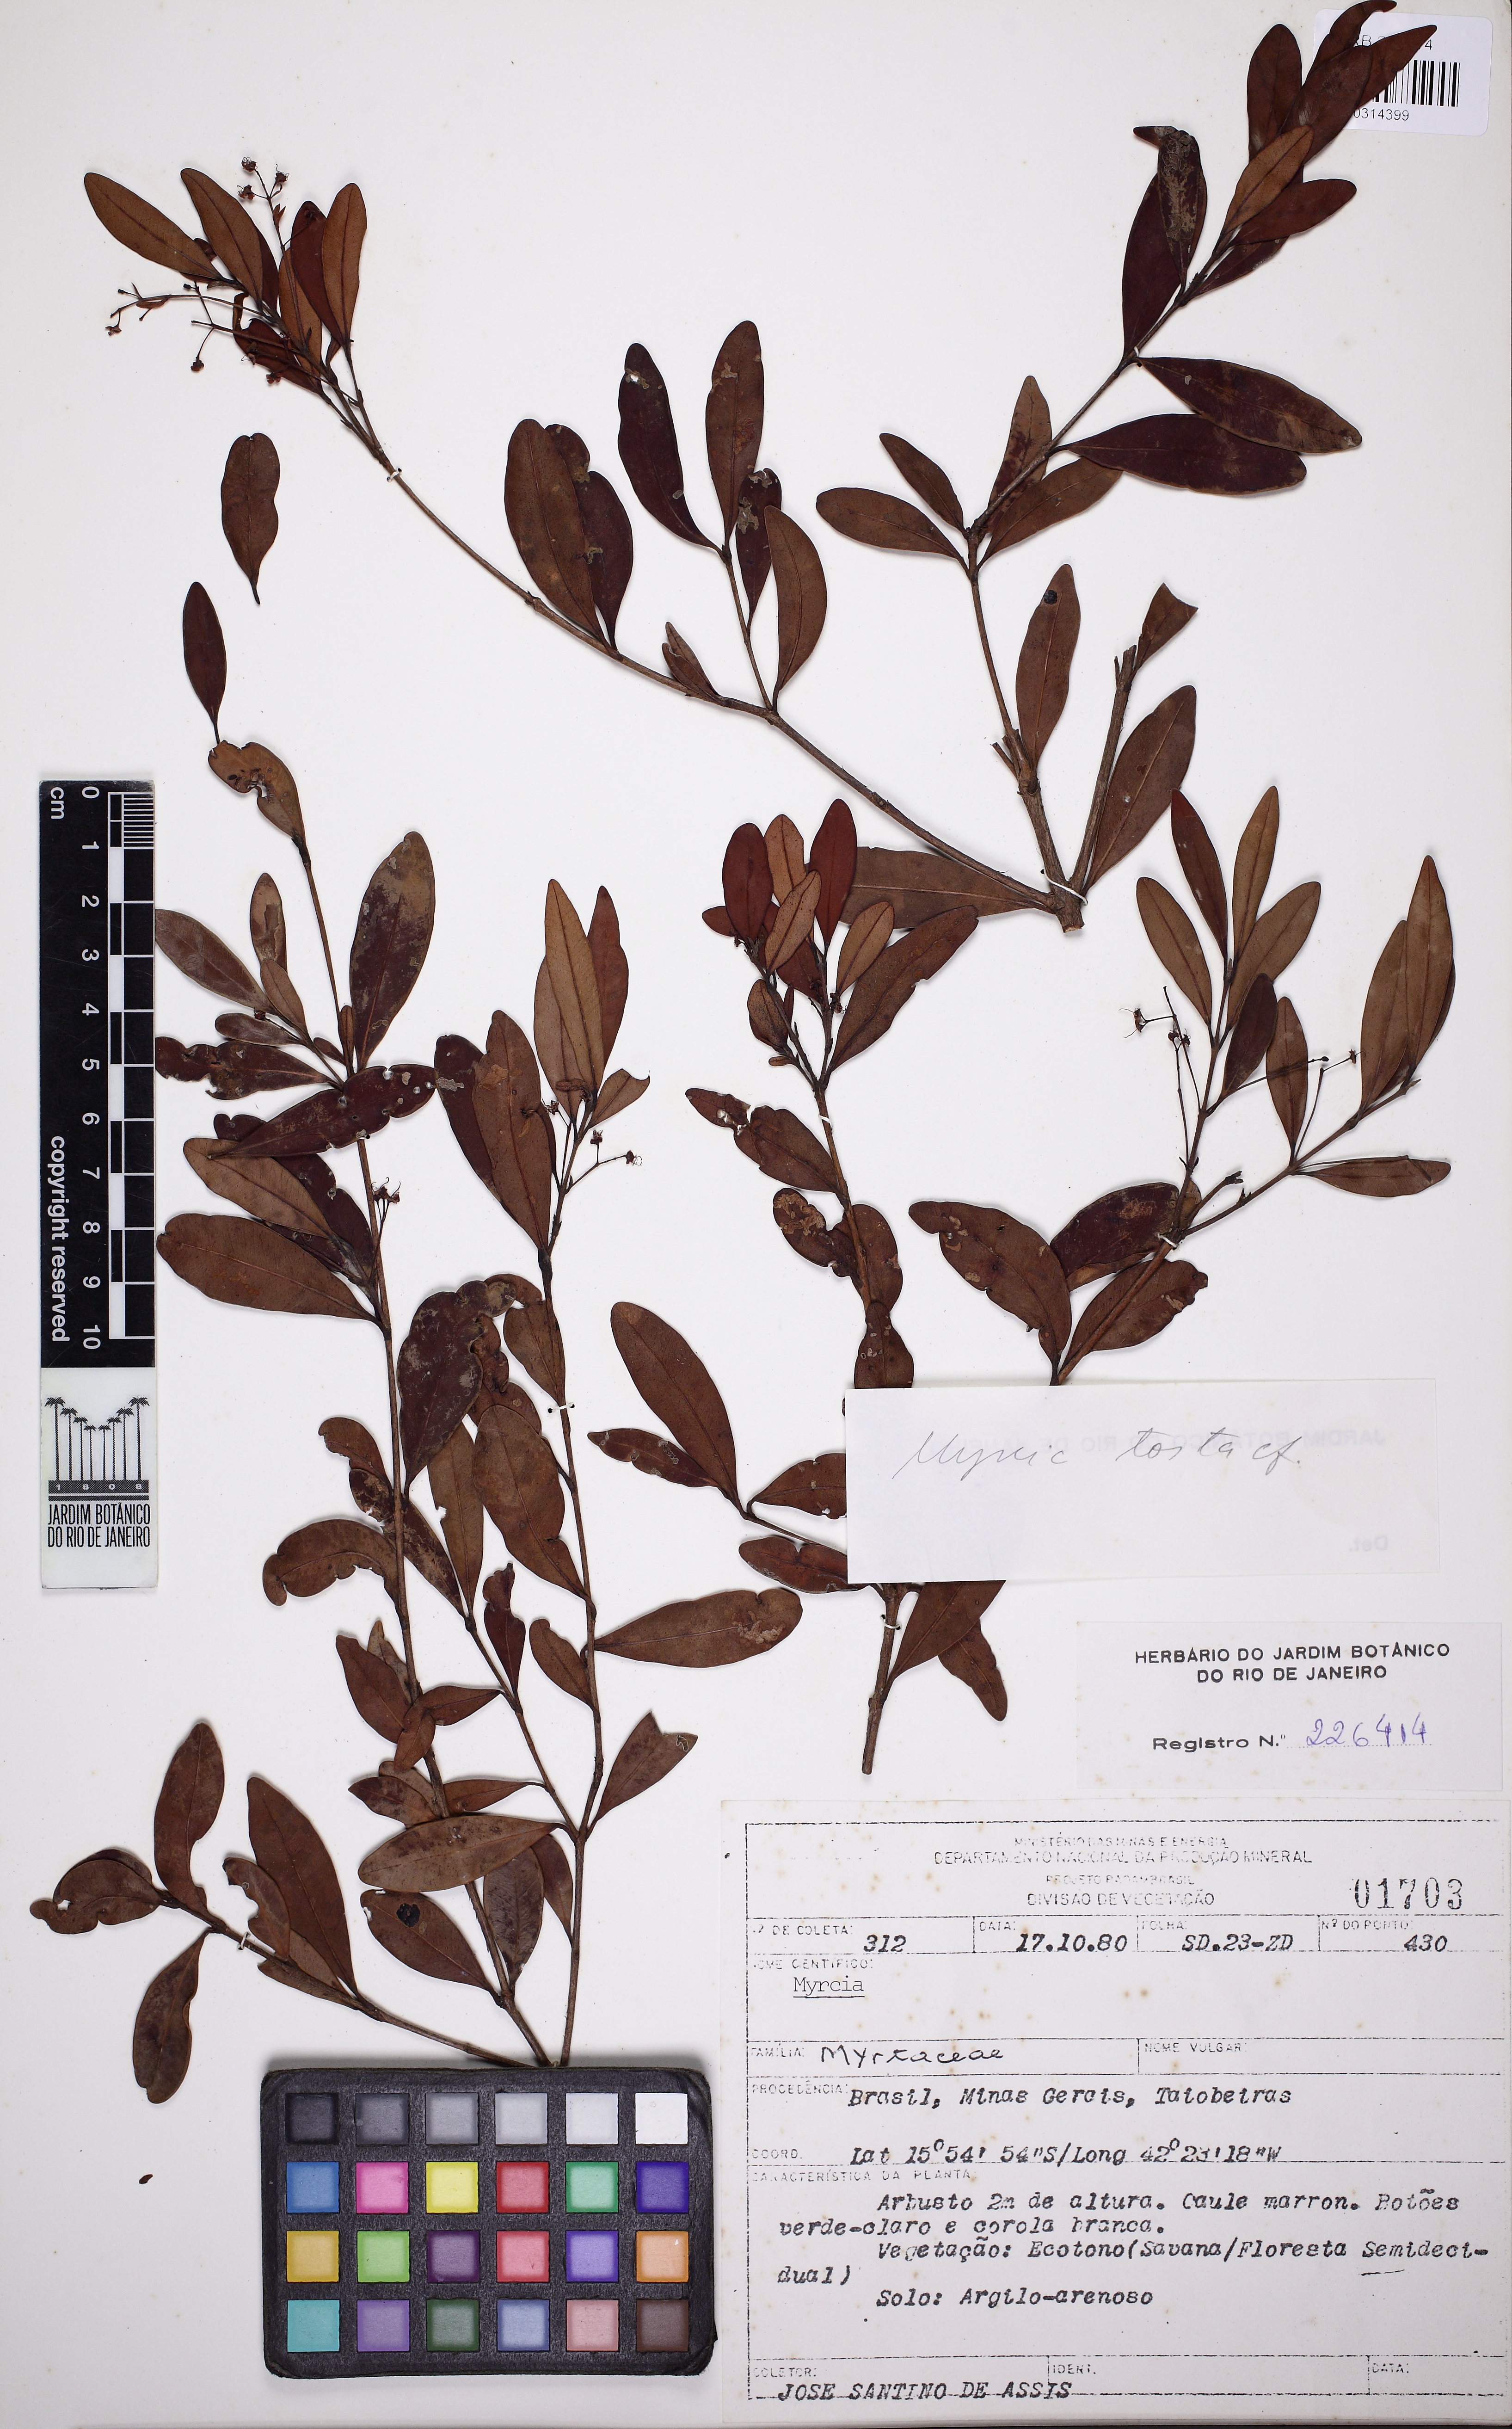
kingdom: Plantae
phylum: Tracheophyta
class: Magnoliopsida
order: Myrtales
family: Myrtaceae
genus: Myrcia
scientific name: Myrcia guianensis
